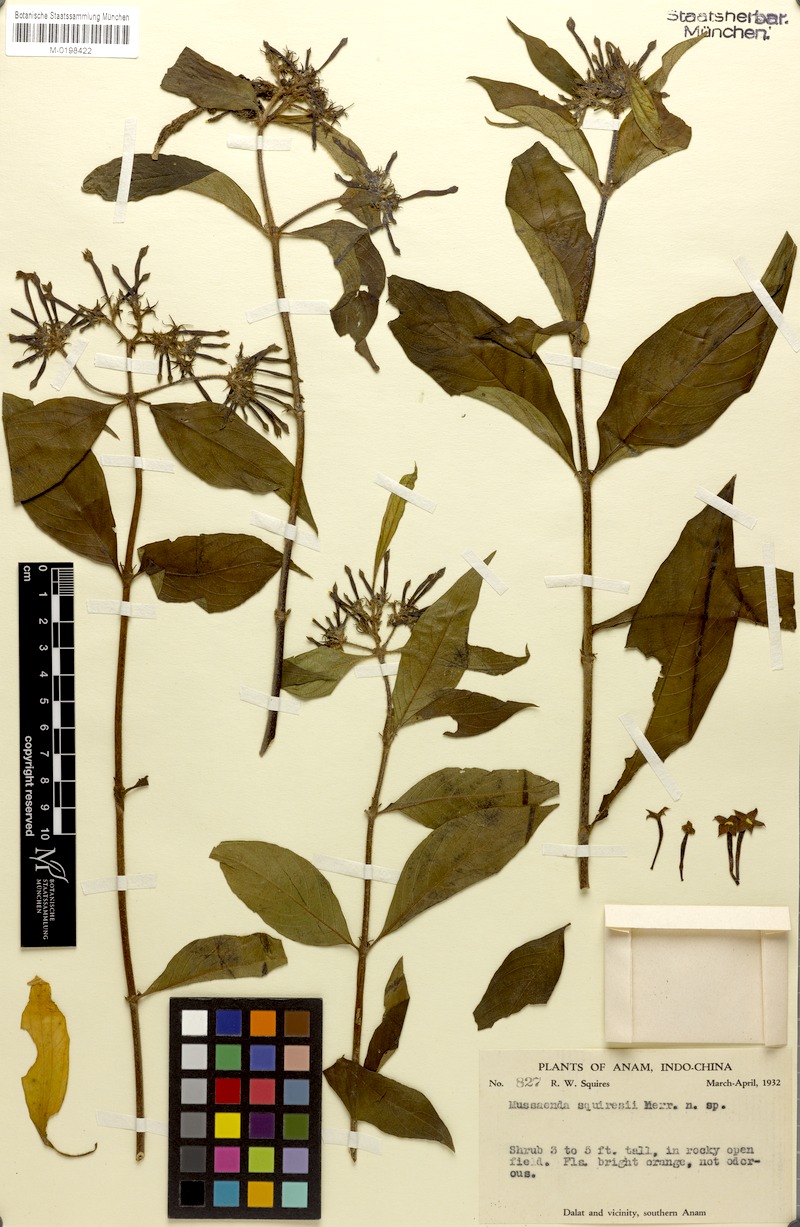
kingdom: Plantae
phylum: Tracheophyta
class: Magnoliopsida
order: Gentianales
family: Rubiaceae
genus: Mussaenda
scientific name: Mussaenda squiresii
